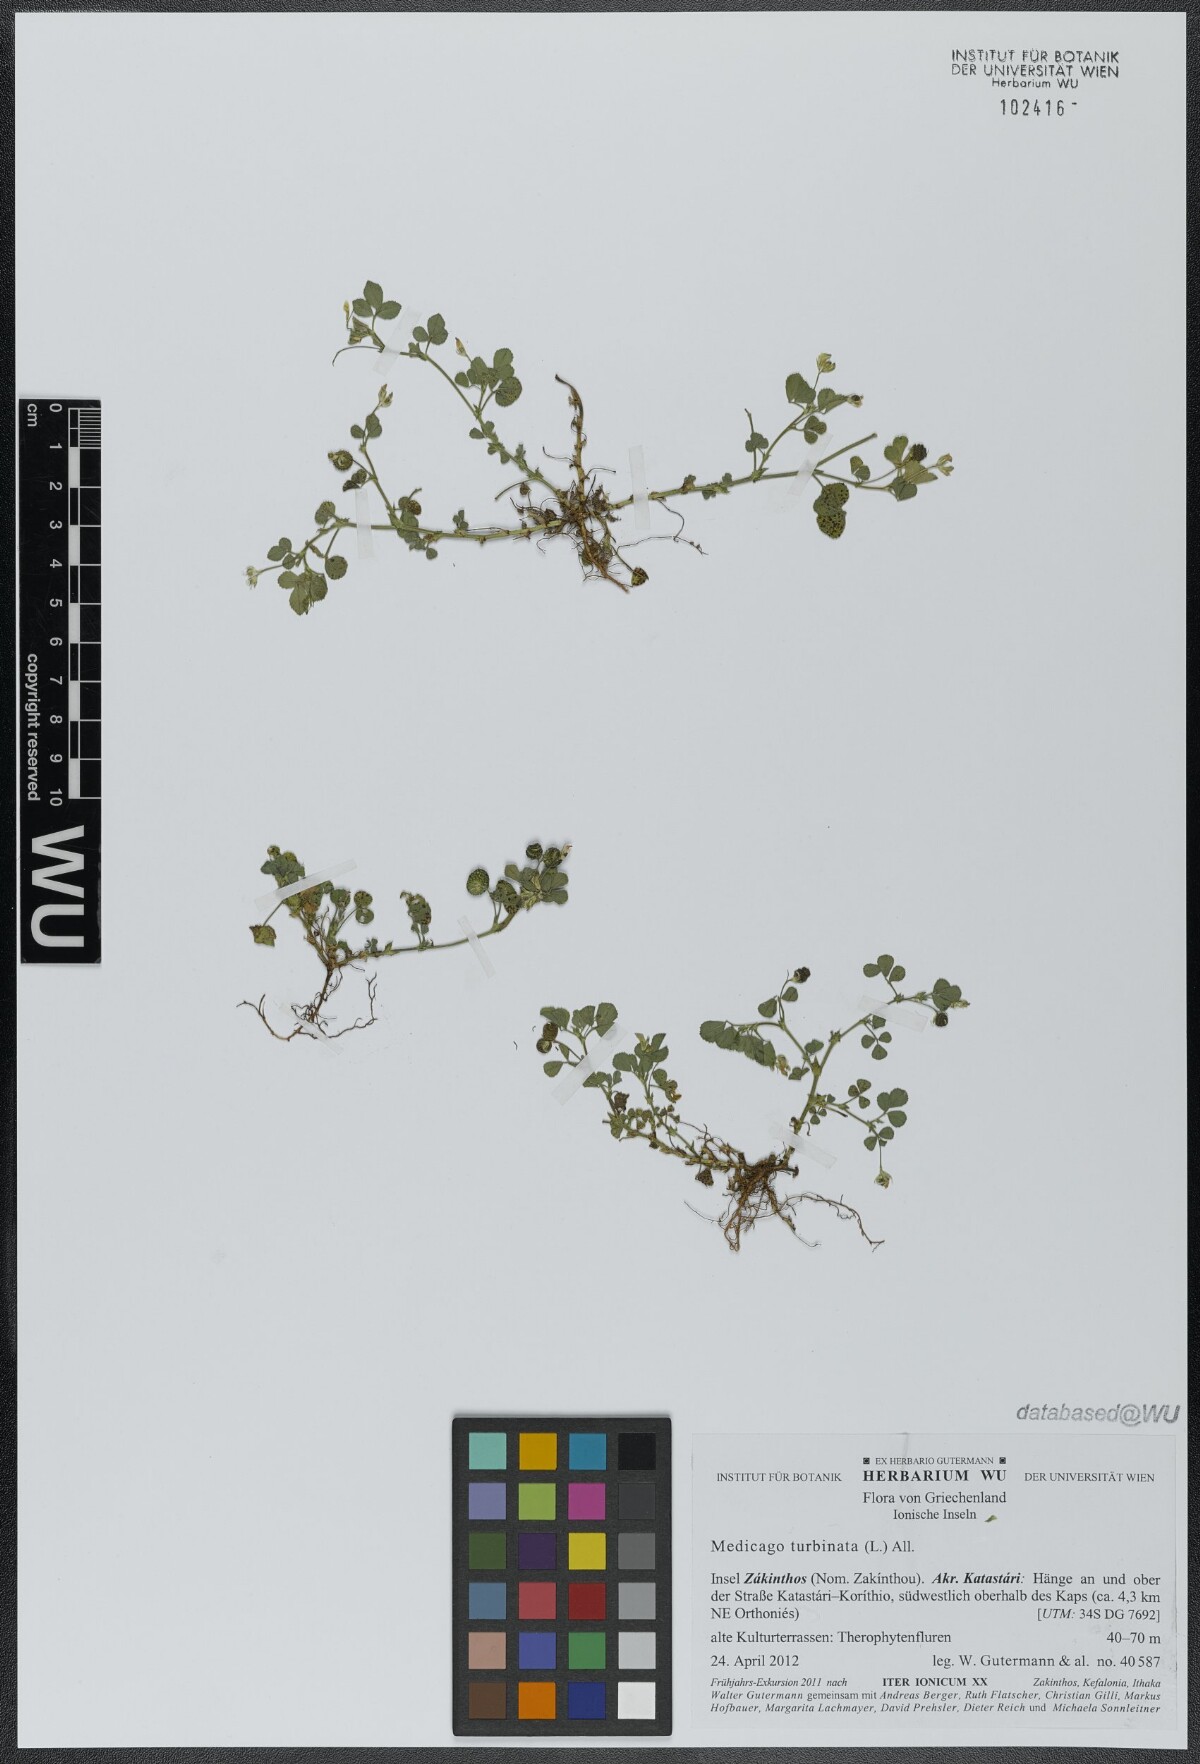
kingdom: Plantae
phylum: Tracheophyta
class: Magnoliopsida
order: Fabales
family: Fabaceae
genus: Medicago
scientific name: Medicago turbinata
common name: Southern medick
